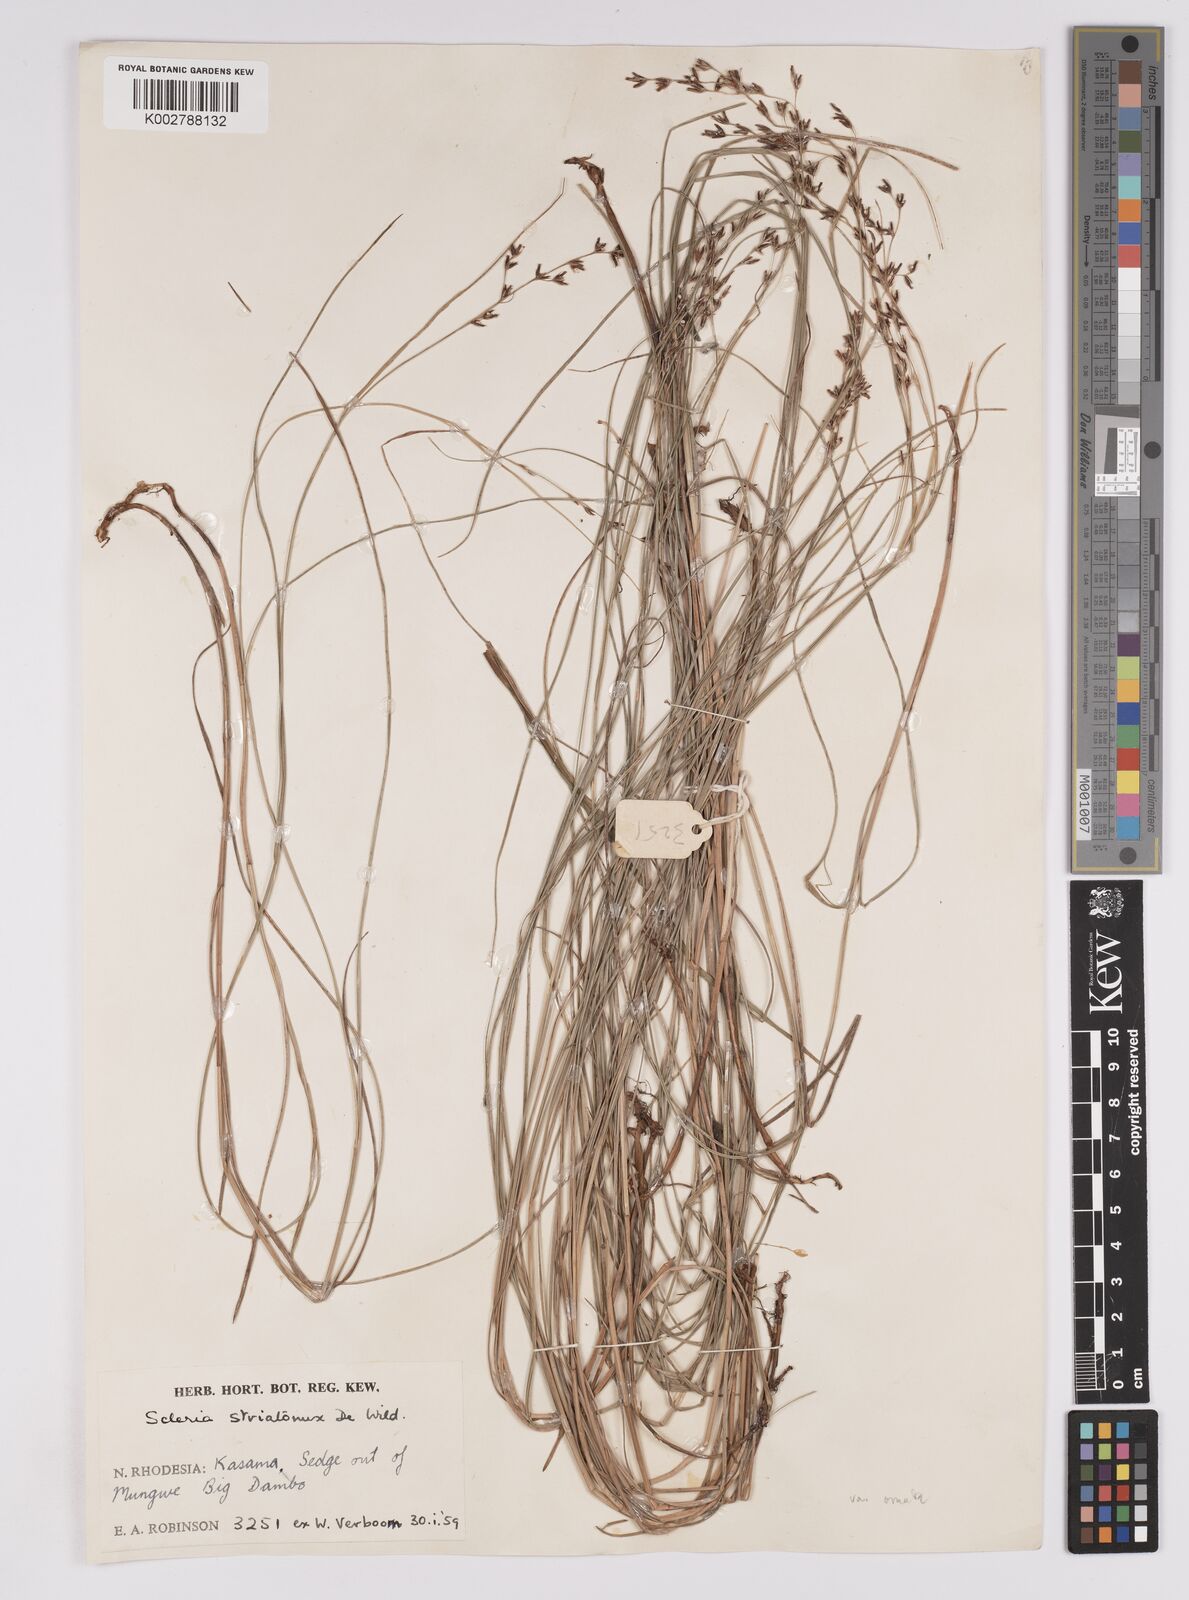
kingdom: Plantae
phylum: Tracheophyta
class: Liliopsida
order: Poales
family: Cyperaceae
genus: Scleria
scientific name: Scleria woodii
